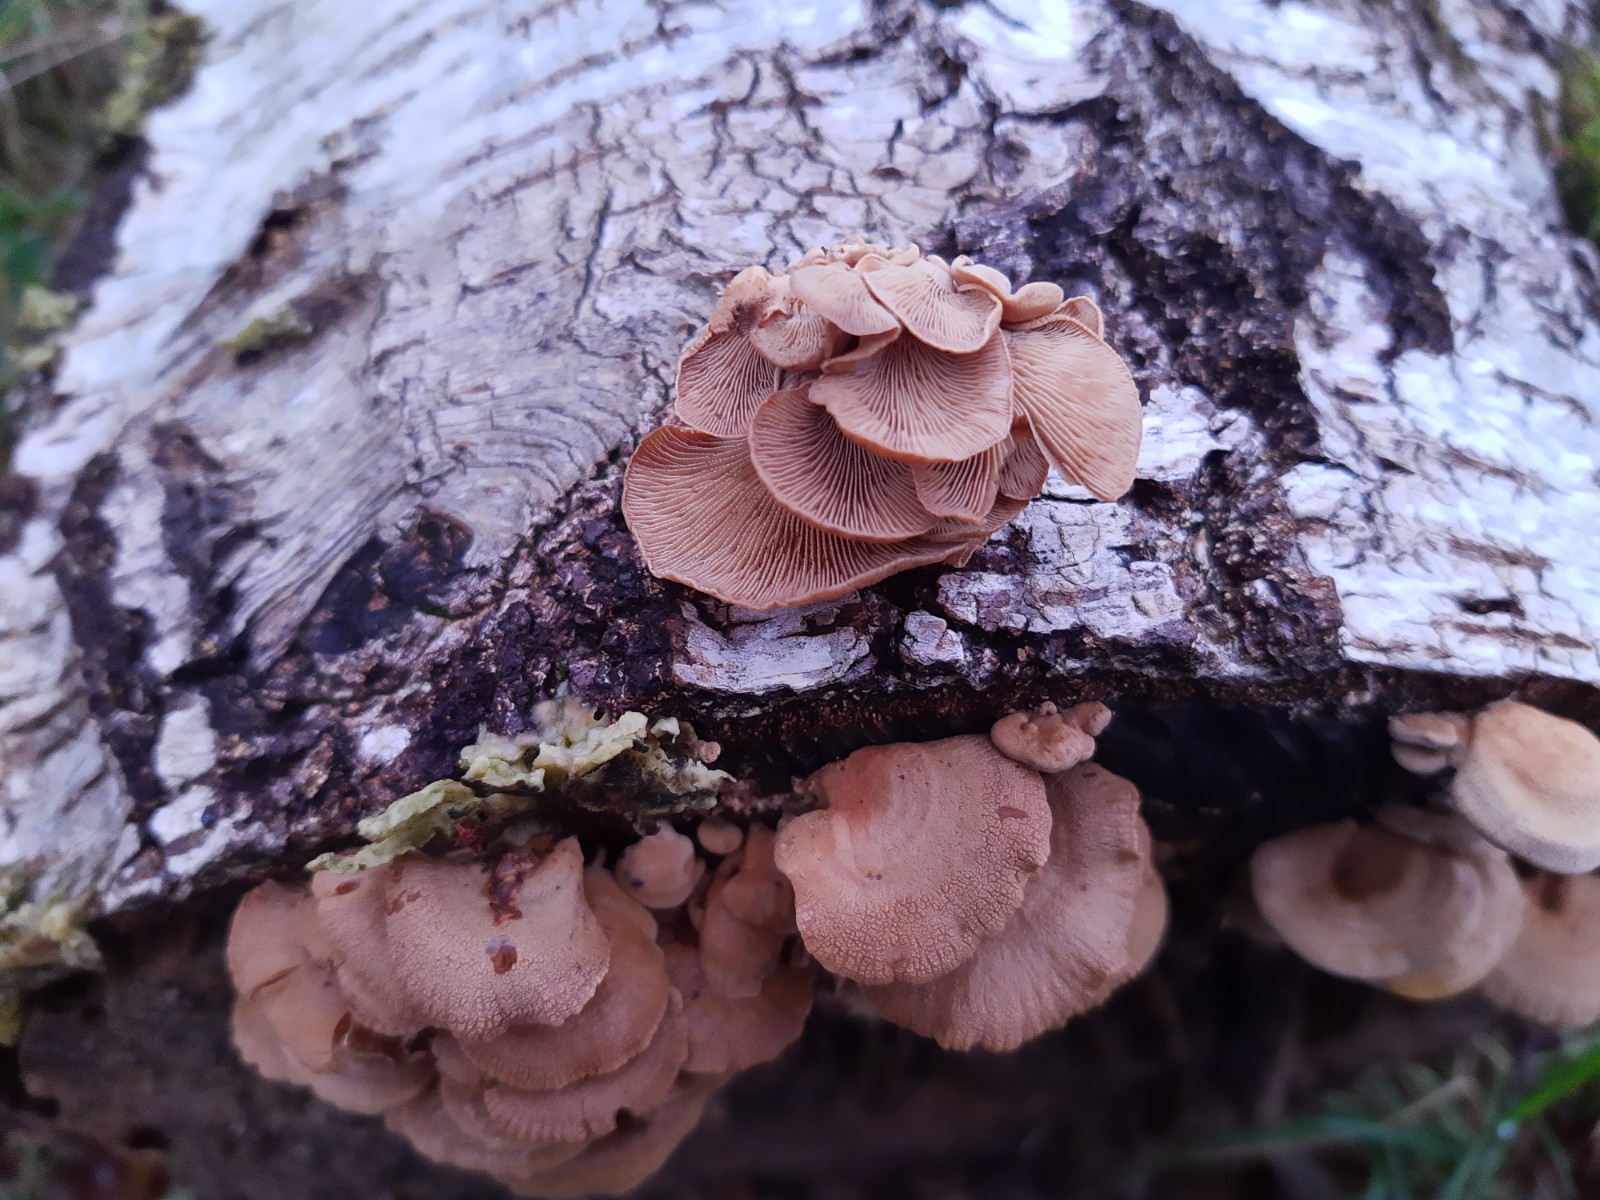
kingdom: Fungi
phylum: Basidiomycota
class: Agaricomycetes
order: Agaricales
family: Mycenaceae
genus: Panellus
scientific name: Panellus stipticus
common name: kliddet epaulethat
